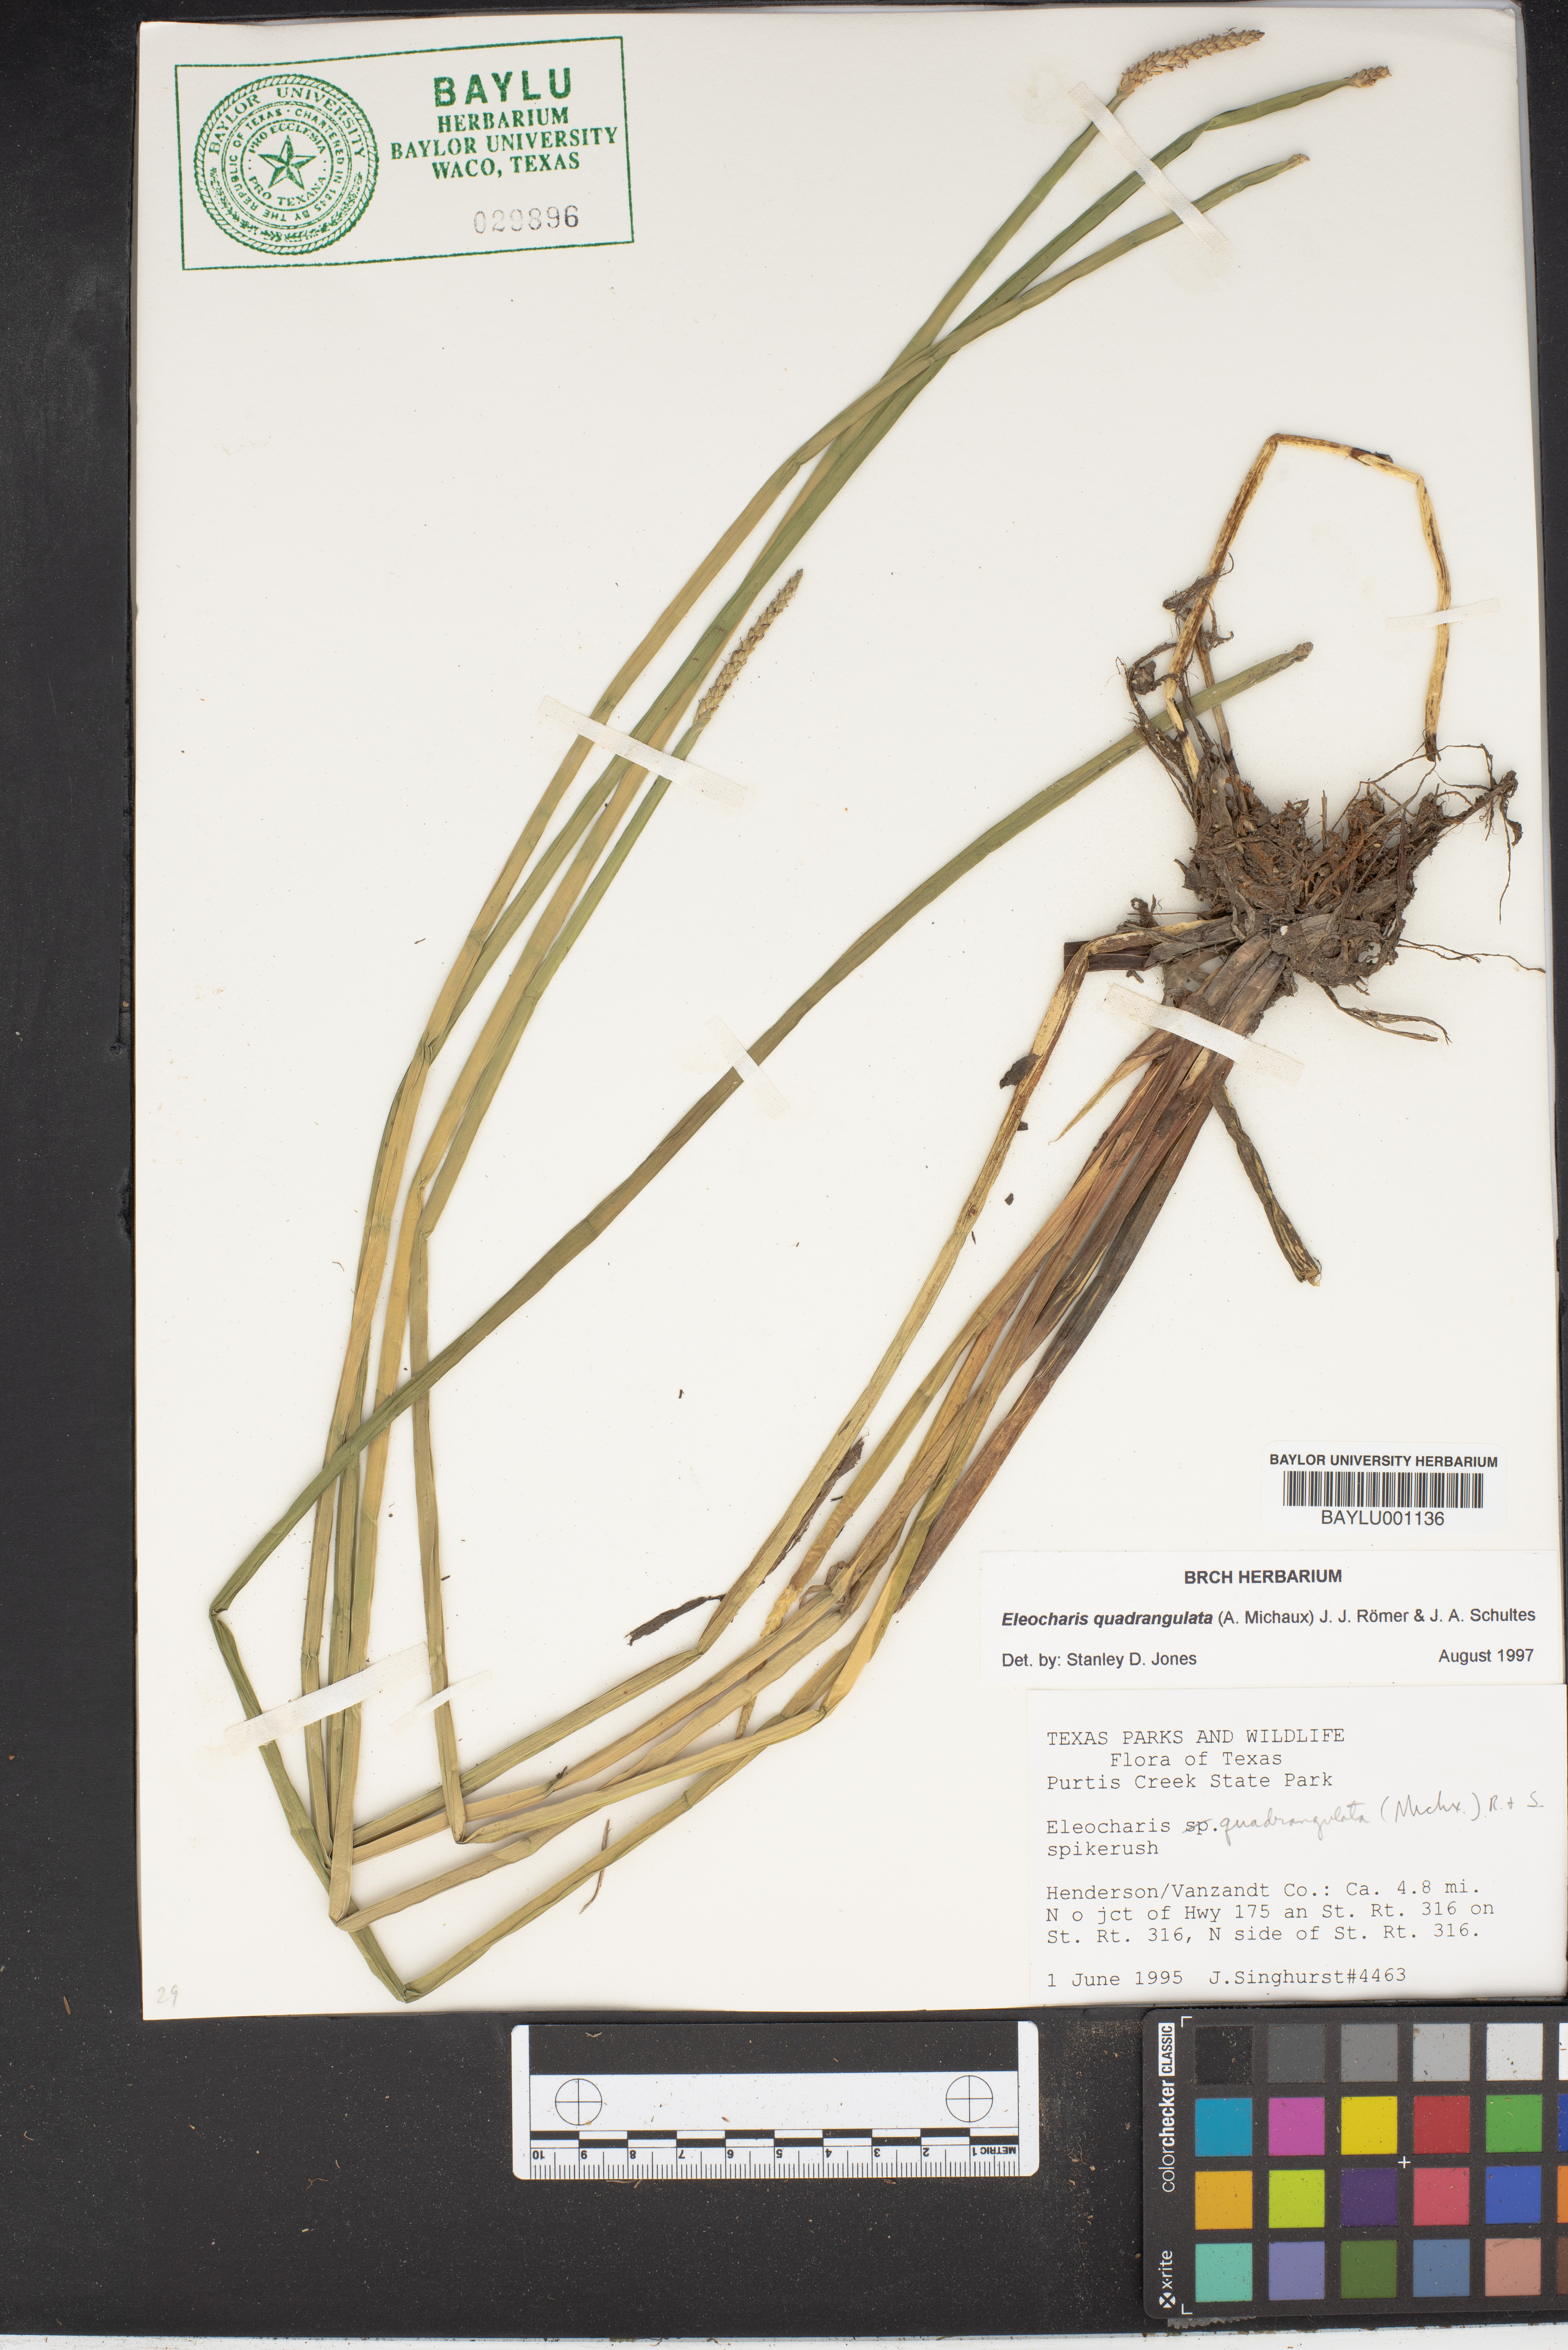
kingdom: Plantae
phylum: Tracheophyta
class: Liliopsida
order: Poales
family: Cyperaceae
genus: Eleocharis
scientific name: Eleocharis quadrangulata
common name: Square-stem spike-rush
